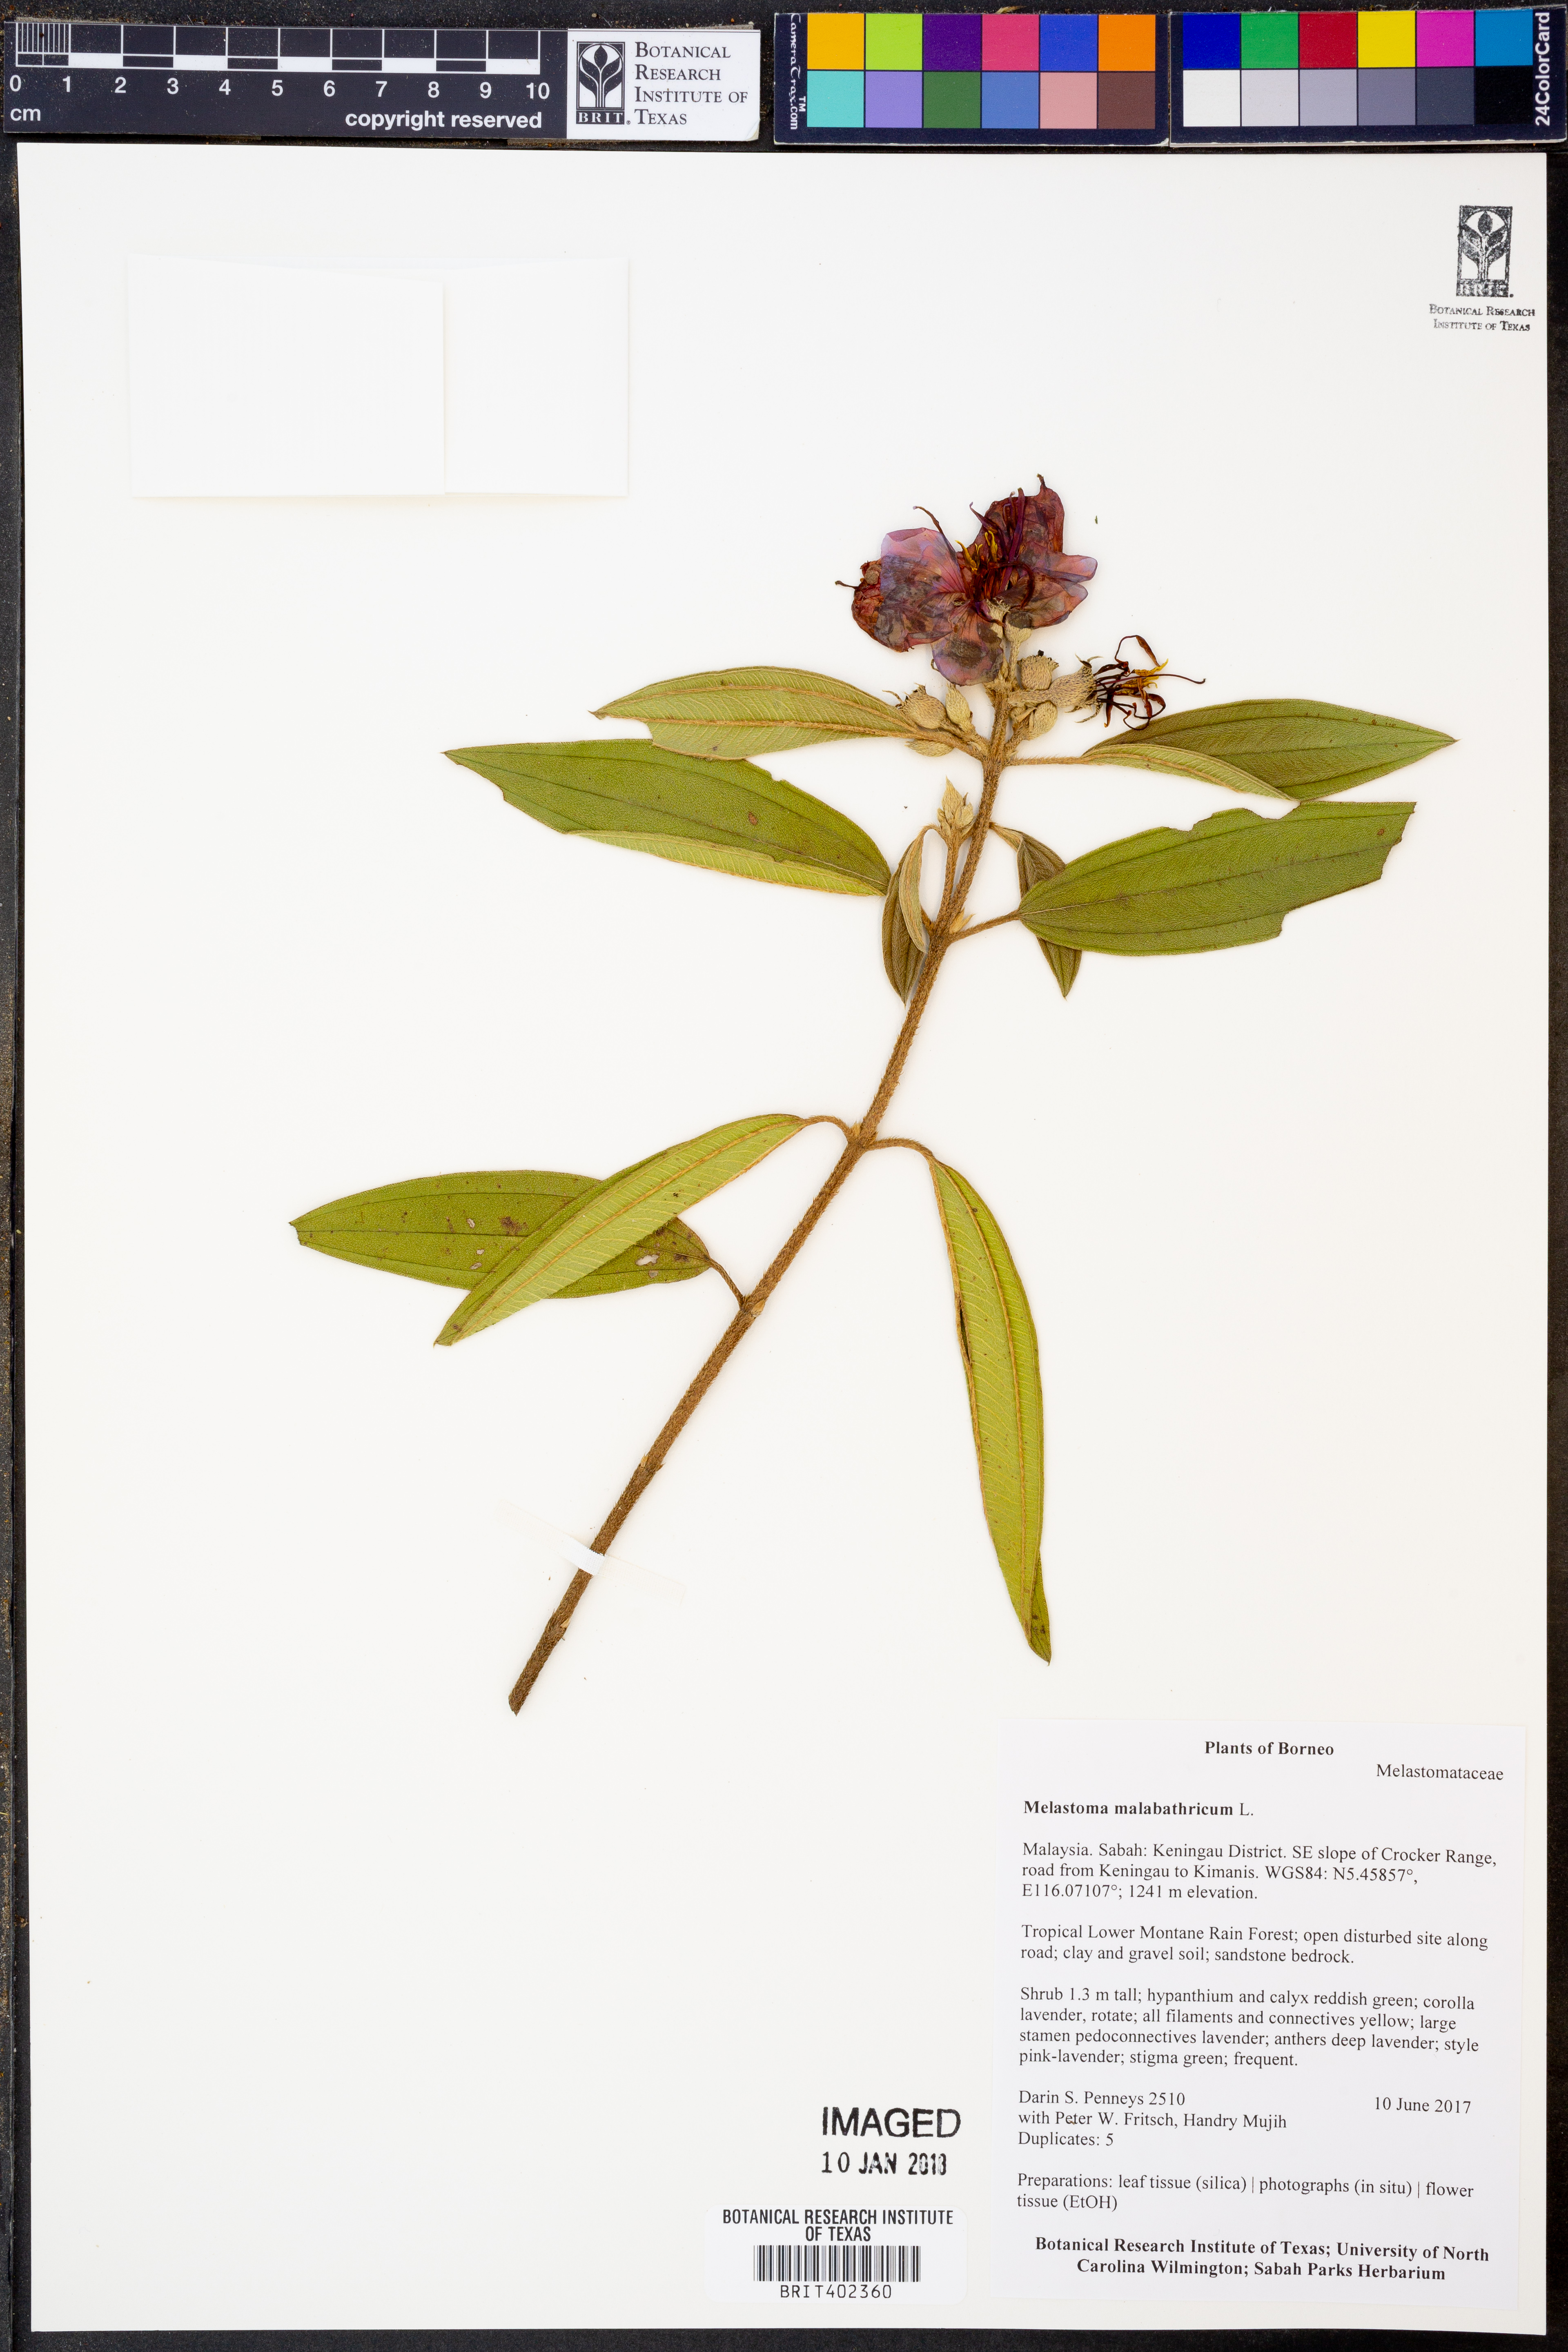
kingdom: Plantae
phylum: Tracheophyta
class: Magnoliopsida
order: Myrtales
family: Melastomataceae
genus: Melastoma
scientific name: Melastoma malabathricum
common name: Indian-rhododendron
